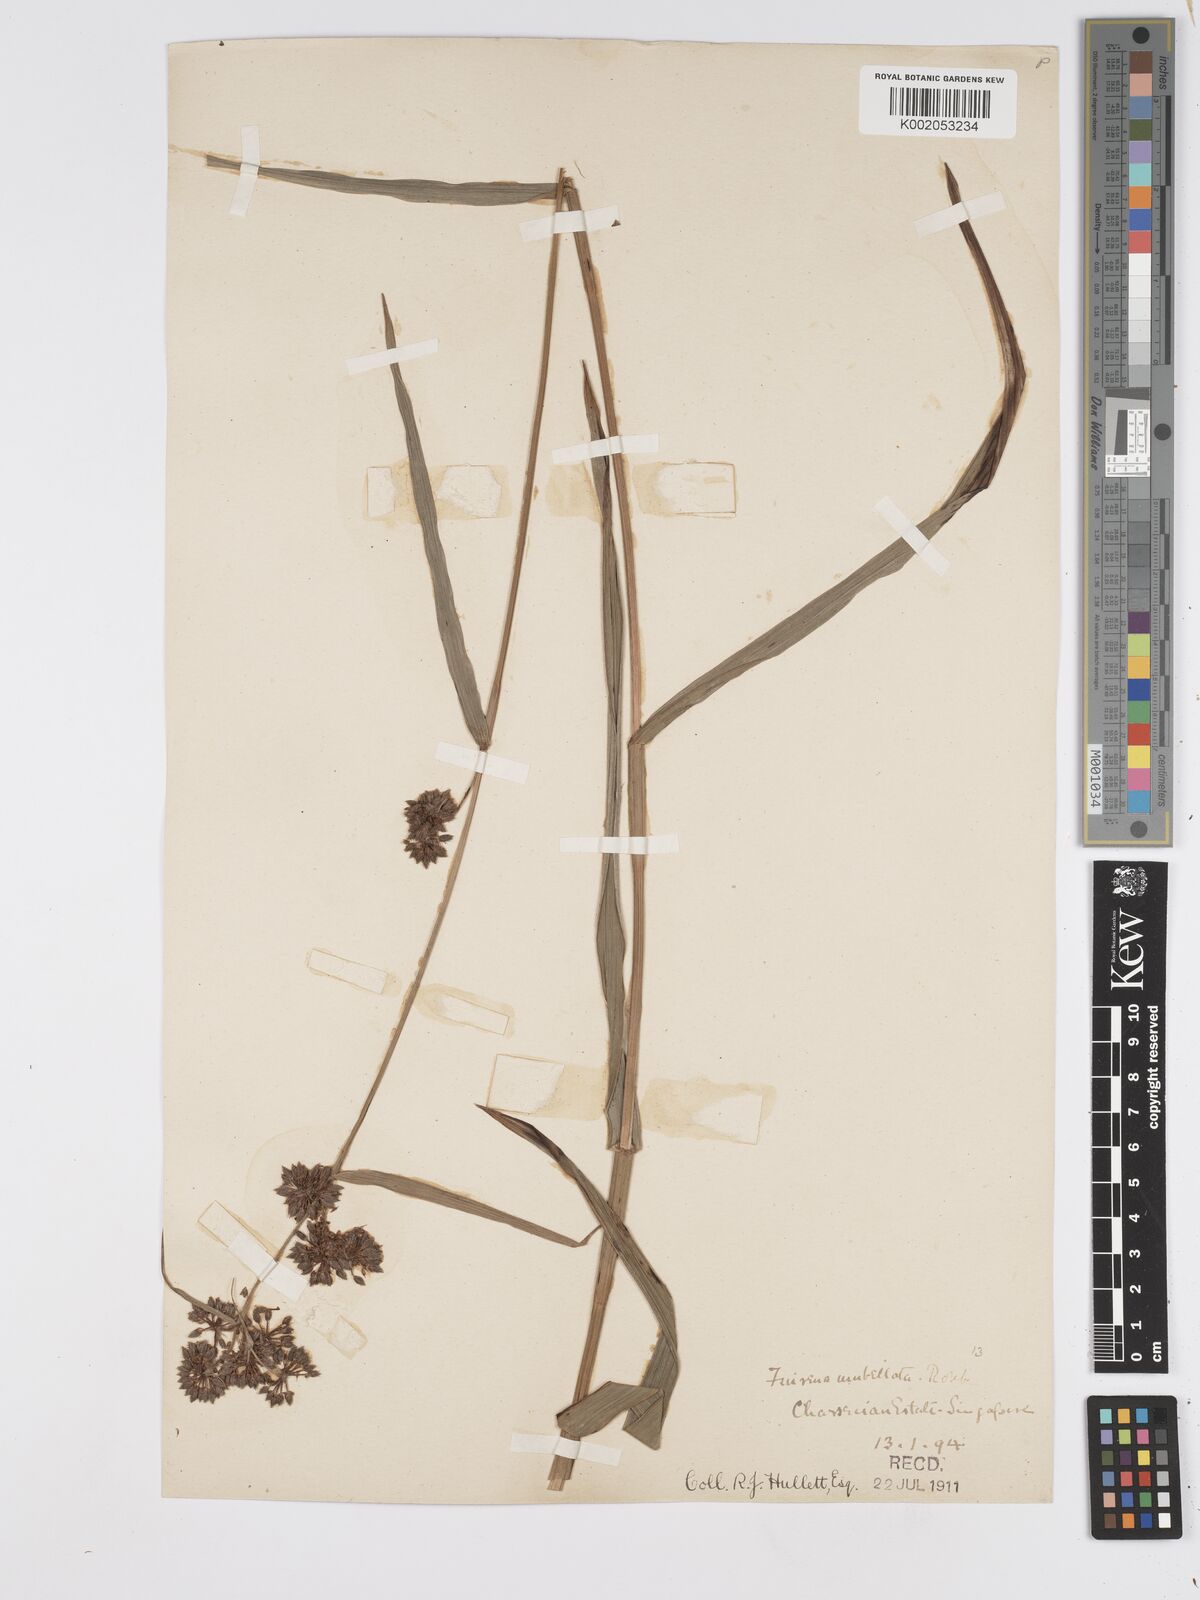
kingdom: Plantae
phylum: Tracheophyta
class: Liliopsida
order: Poales
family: Cyperaceae
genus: Fuirena
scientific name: Fuirena umbellata
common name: Yefen
